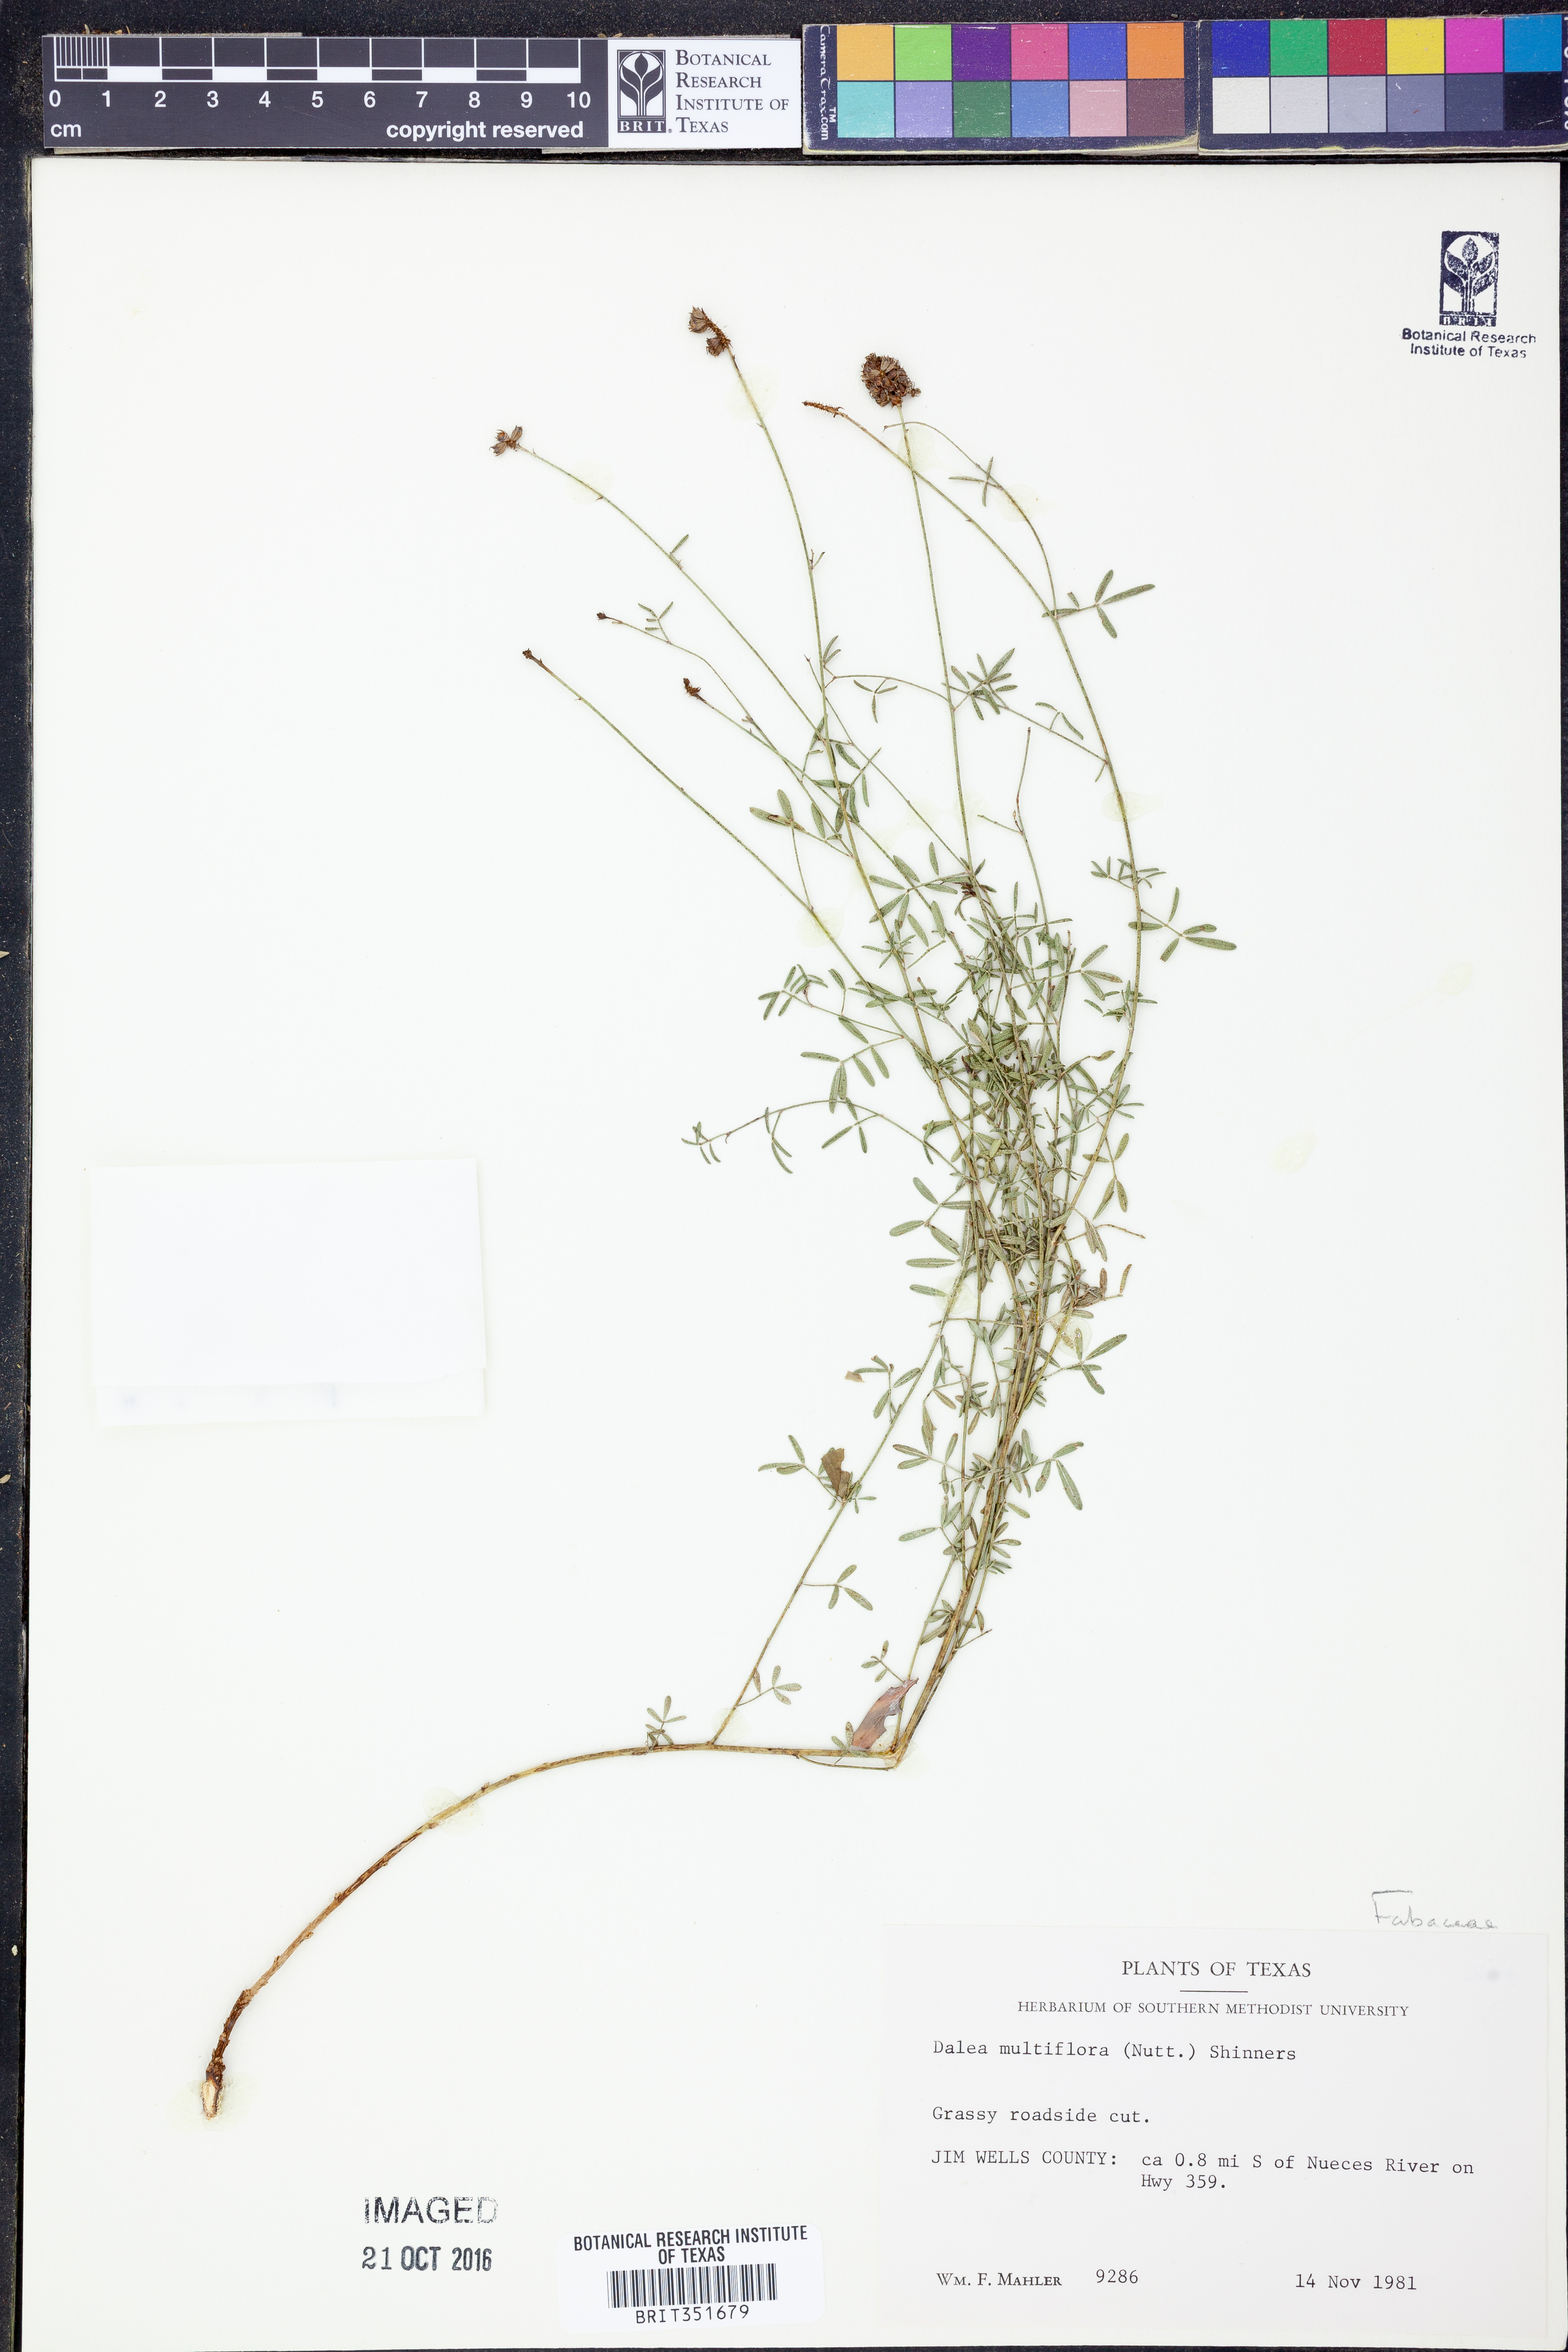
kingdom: Plantae
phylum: Tracheophyta
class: Magnoliopsida
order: Fabales
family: Fabaceae
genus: Dalea
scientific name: Dalea multiflora
